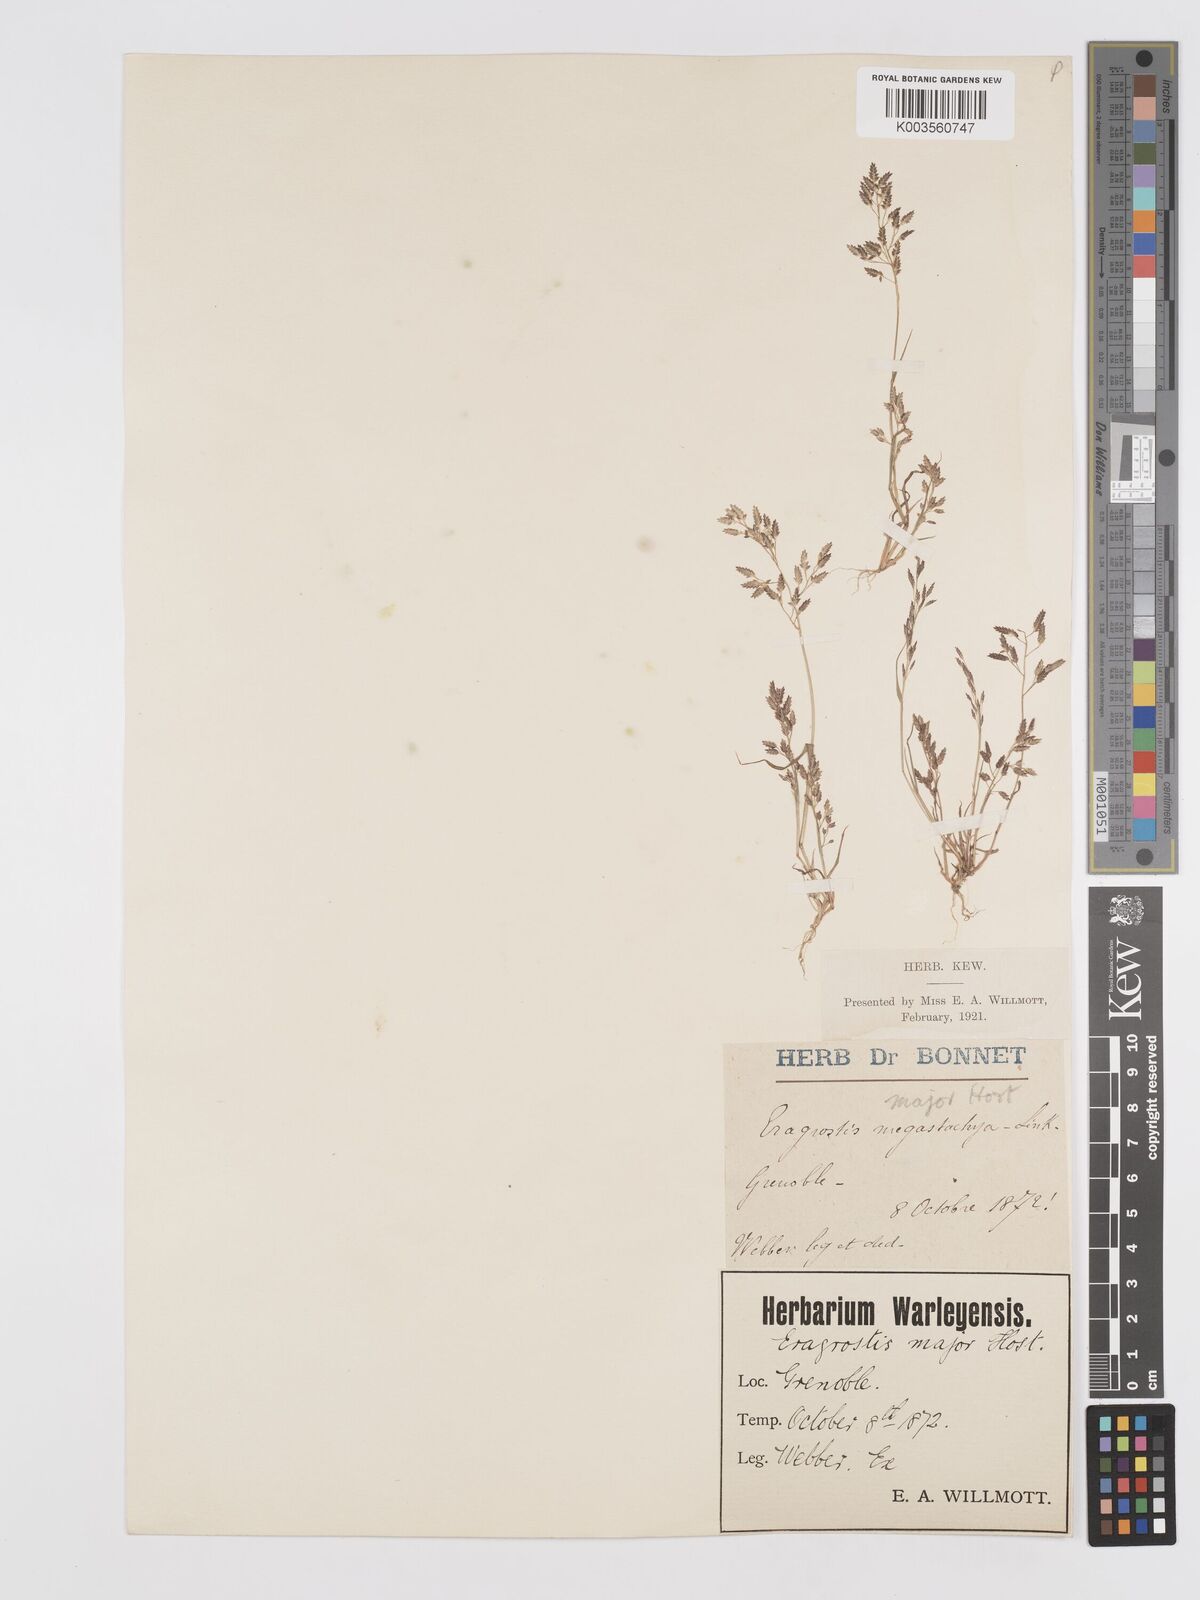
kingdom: Plantae
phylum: Tracheophyta
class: Liliopsida
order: Poales
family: Poaceae
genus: Eragrostis
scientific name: Eragrostis minor
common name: Small love-grass
